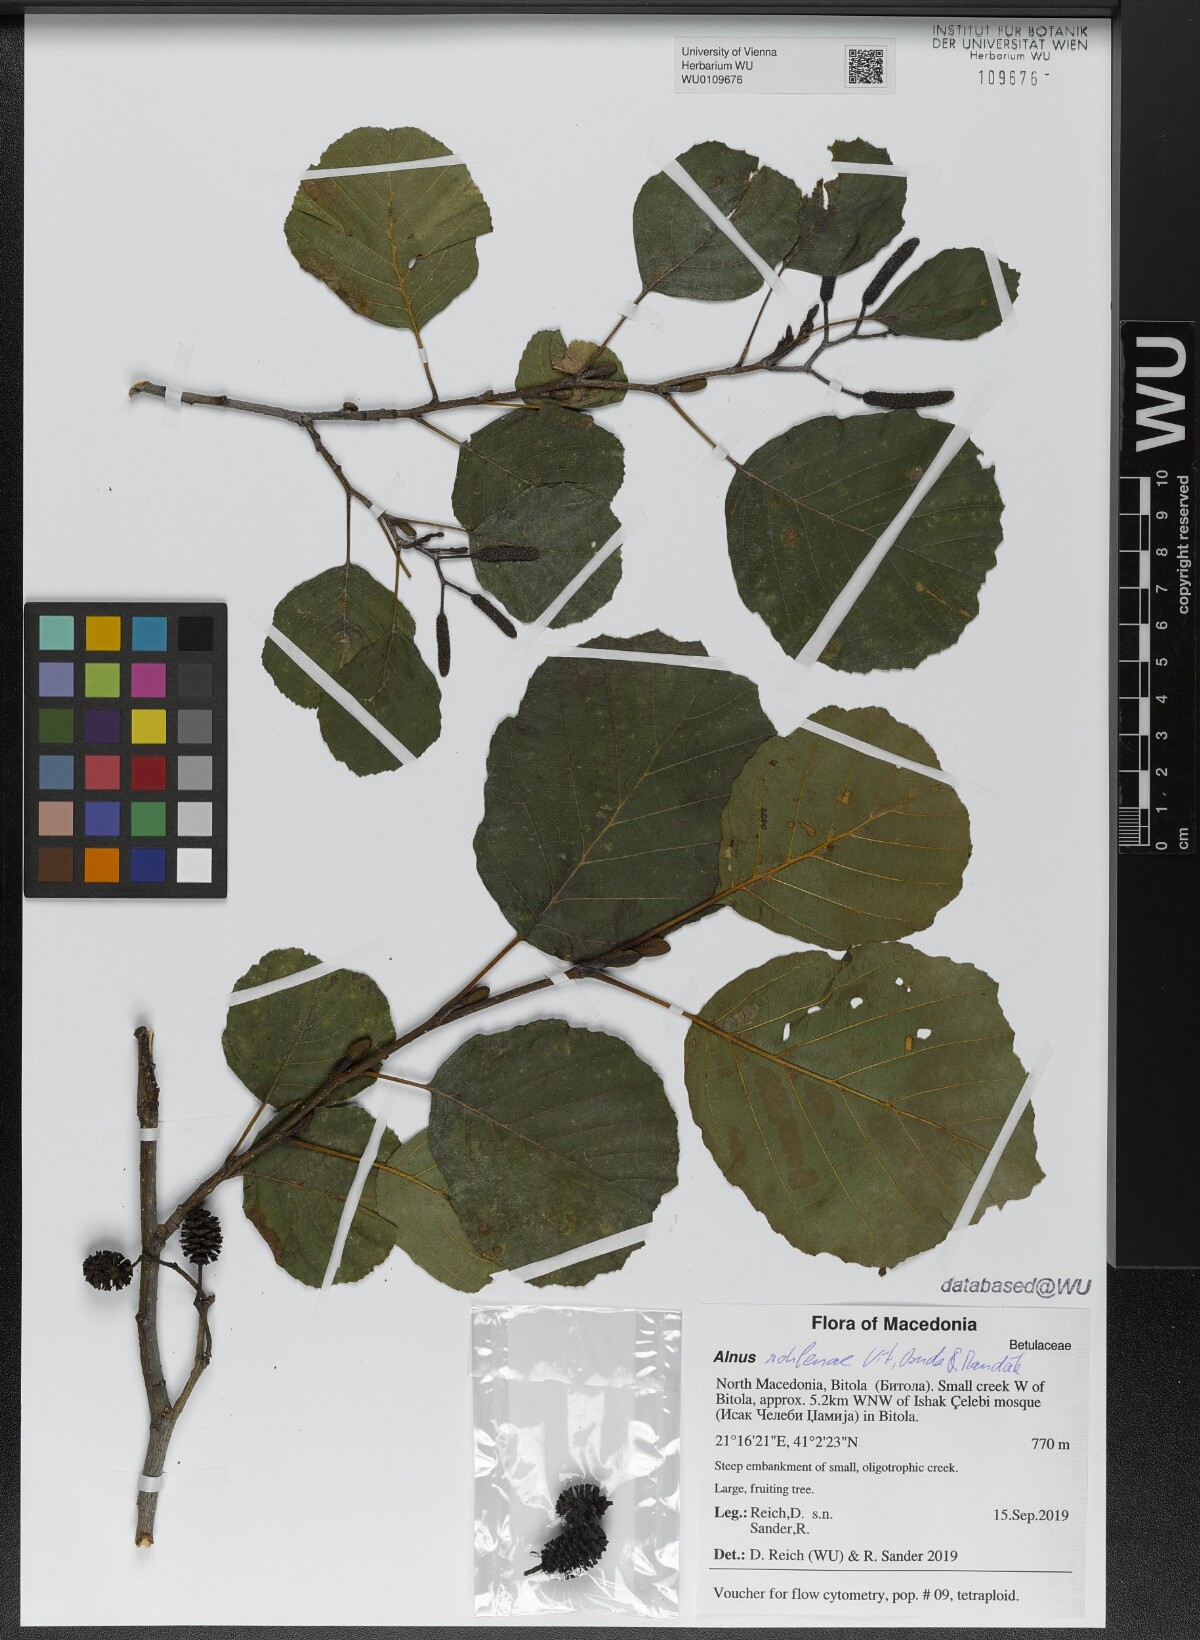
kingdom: Plantae
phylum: Tracheophyta
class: Magnoliopsida
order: Fagales
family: Betulaceae
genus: Alnus
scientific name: Alnus rohlenae
